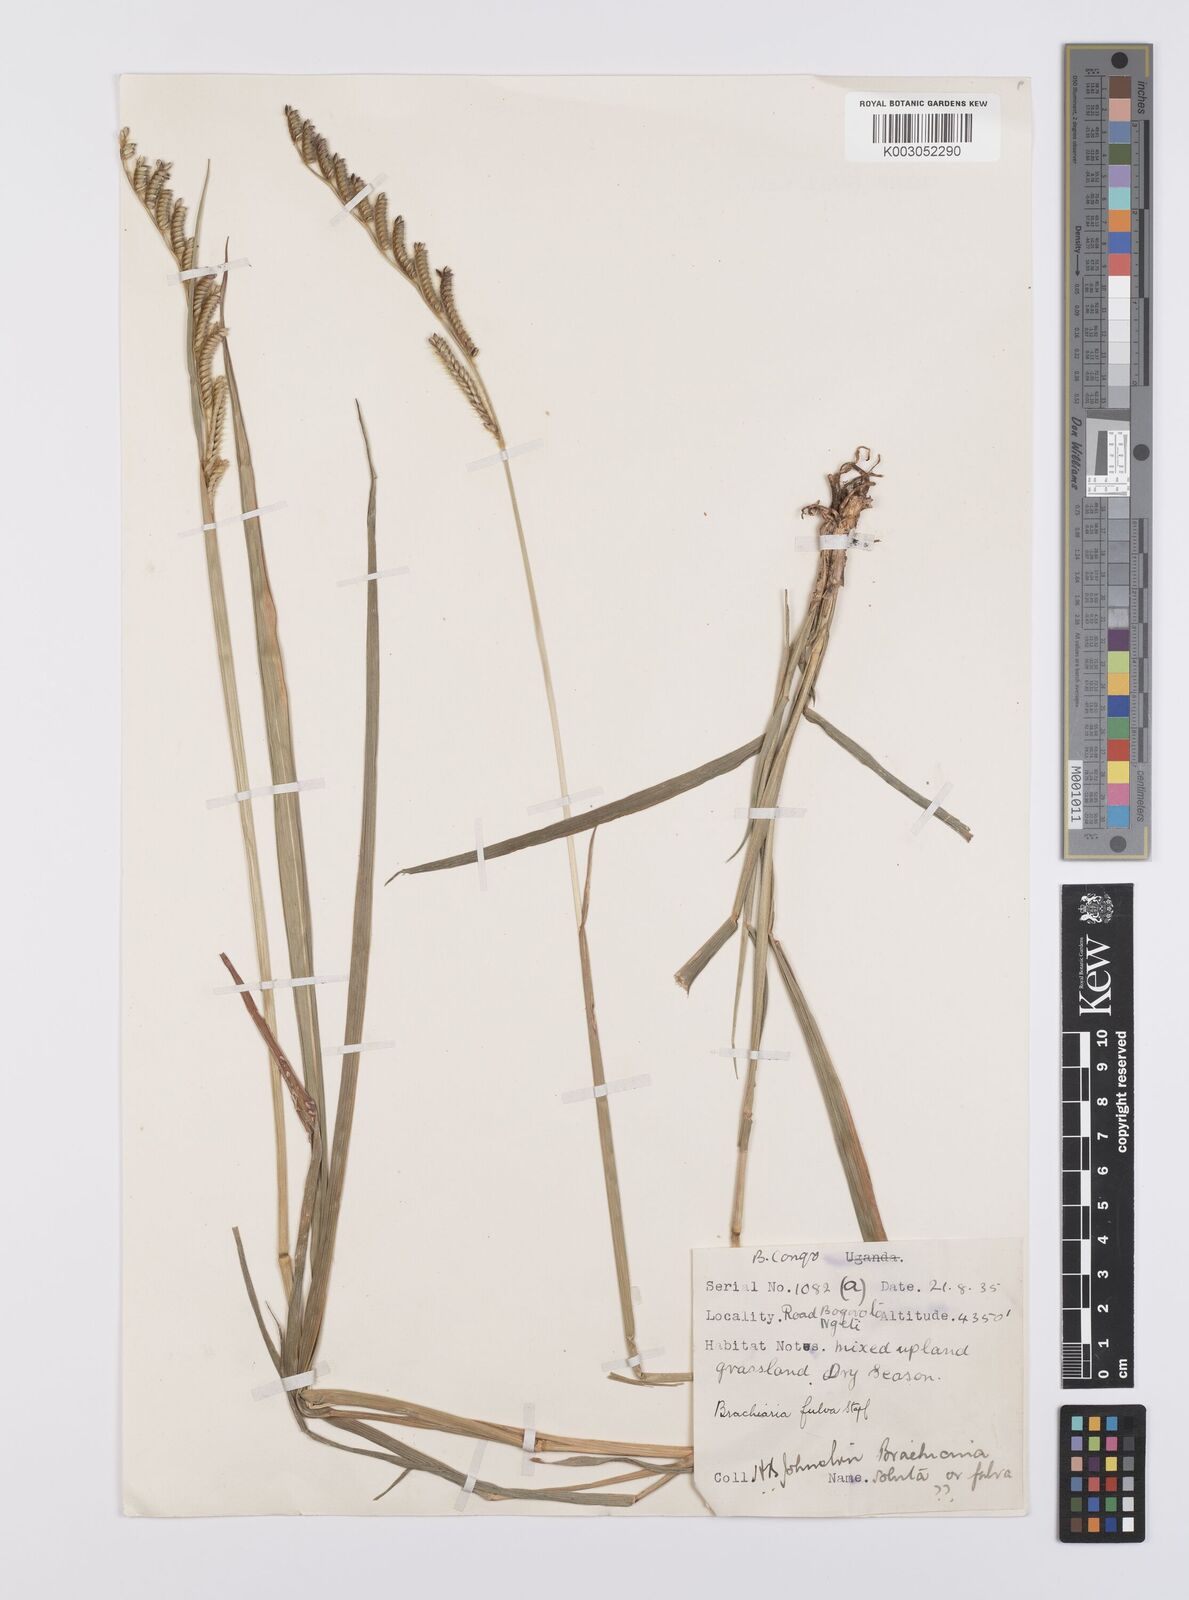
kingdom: Plantae
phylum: Tracheophyta
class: Liliopsida
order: Poales
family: Poaceae
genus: Urochloa
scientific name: Urochloa jubata
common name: Buffalograss
